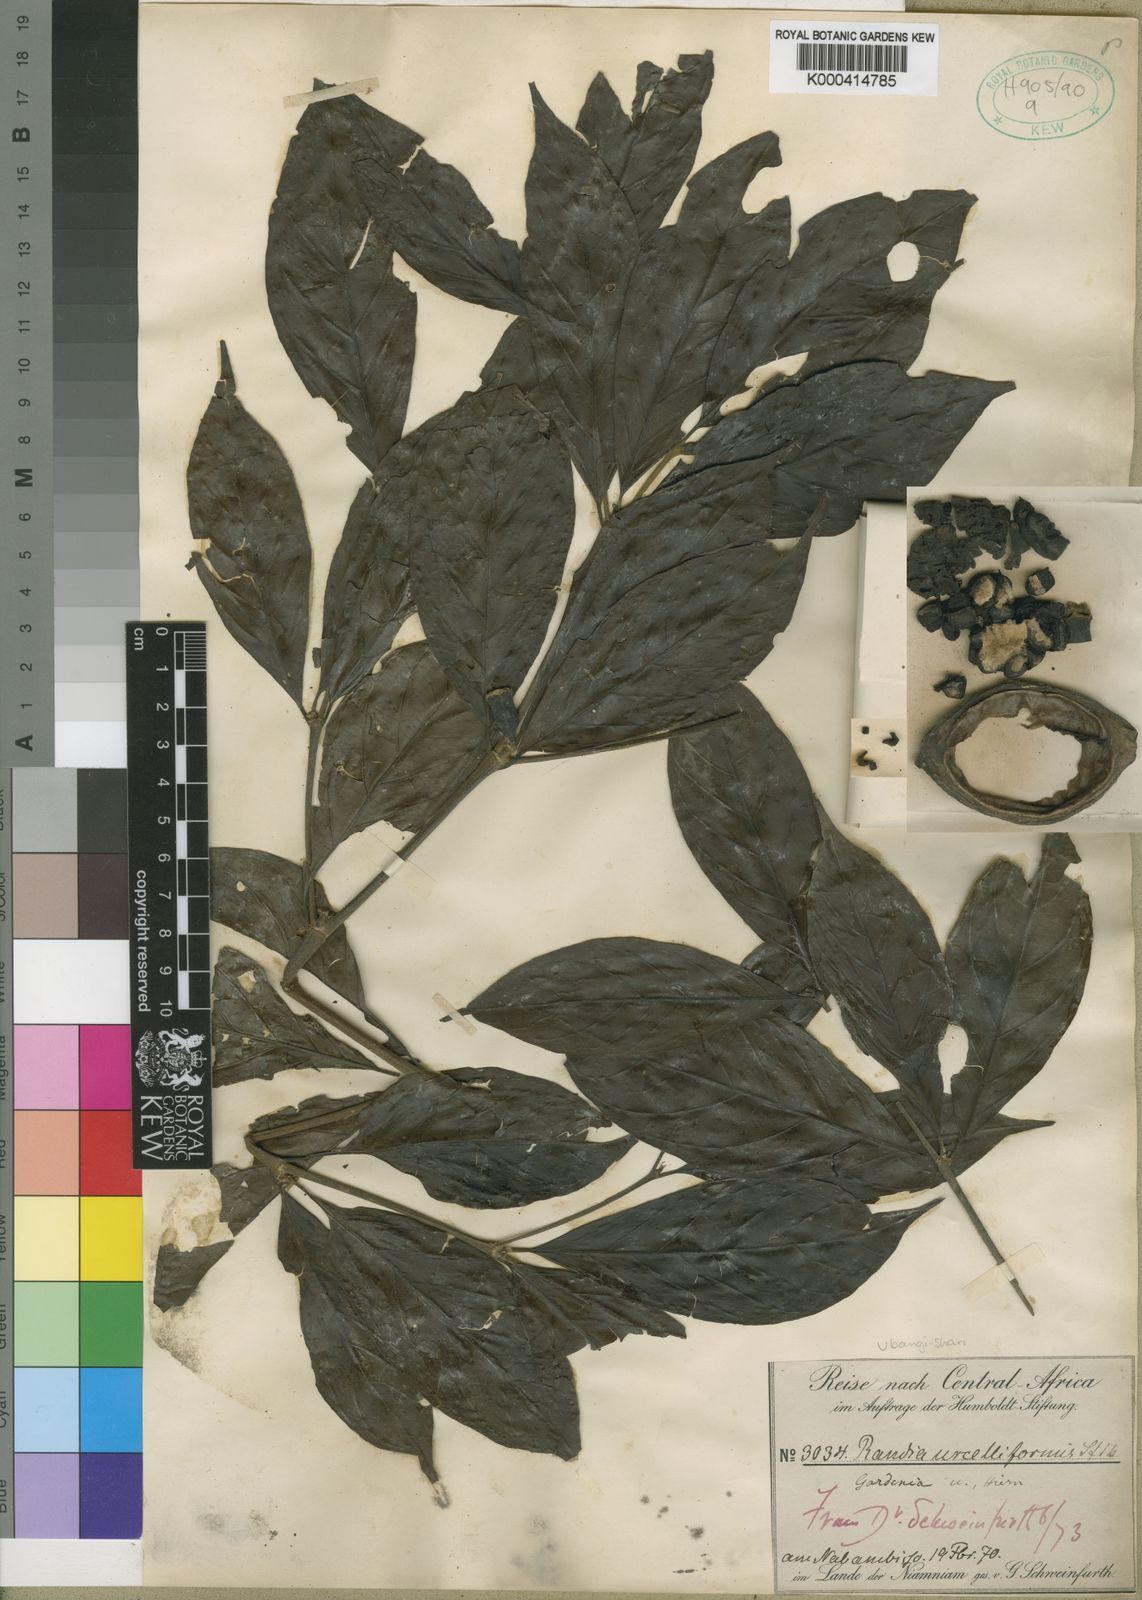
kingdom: Plantae
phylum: Tracheophyta
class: Magnoliopsida
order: Gentianales
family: Rubiaceae
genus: Rothmannia
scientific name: Rothmannia urcelliformis
